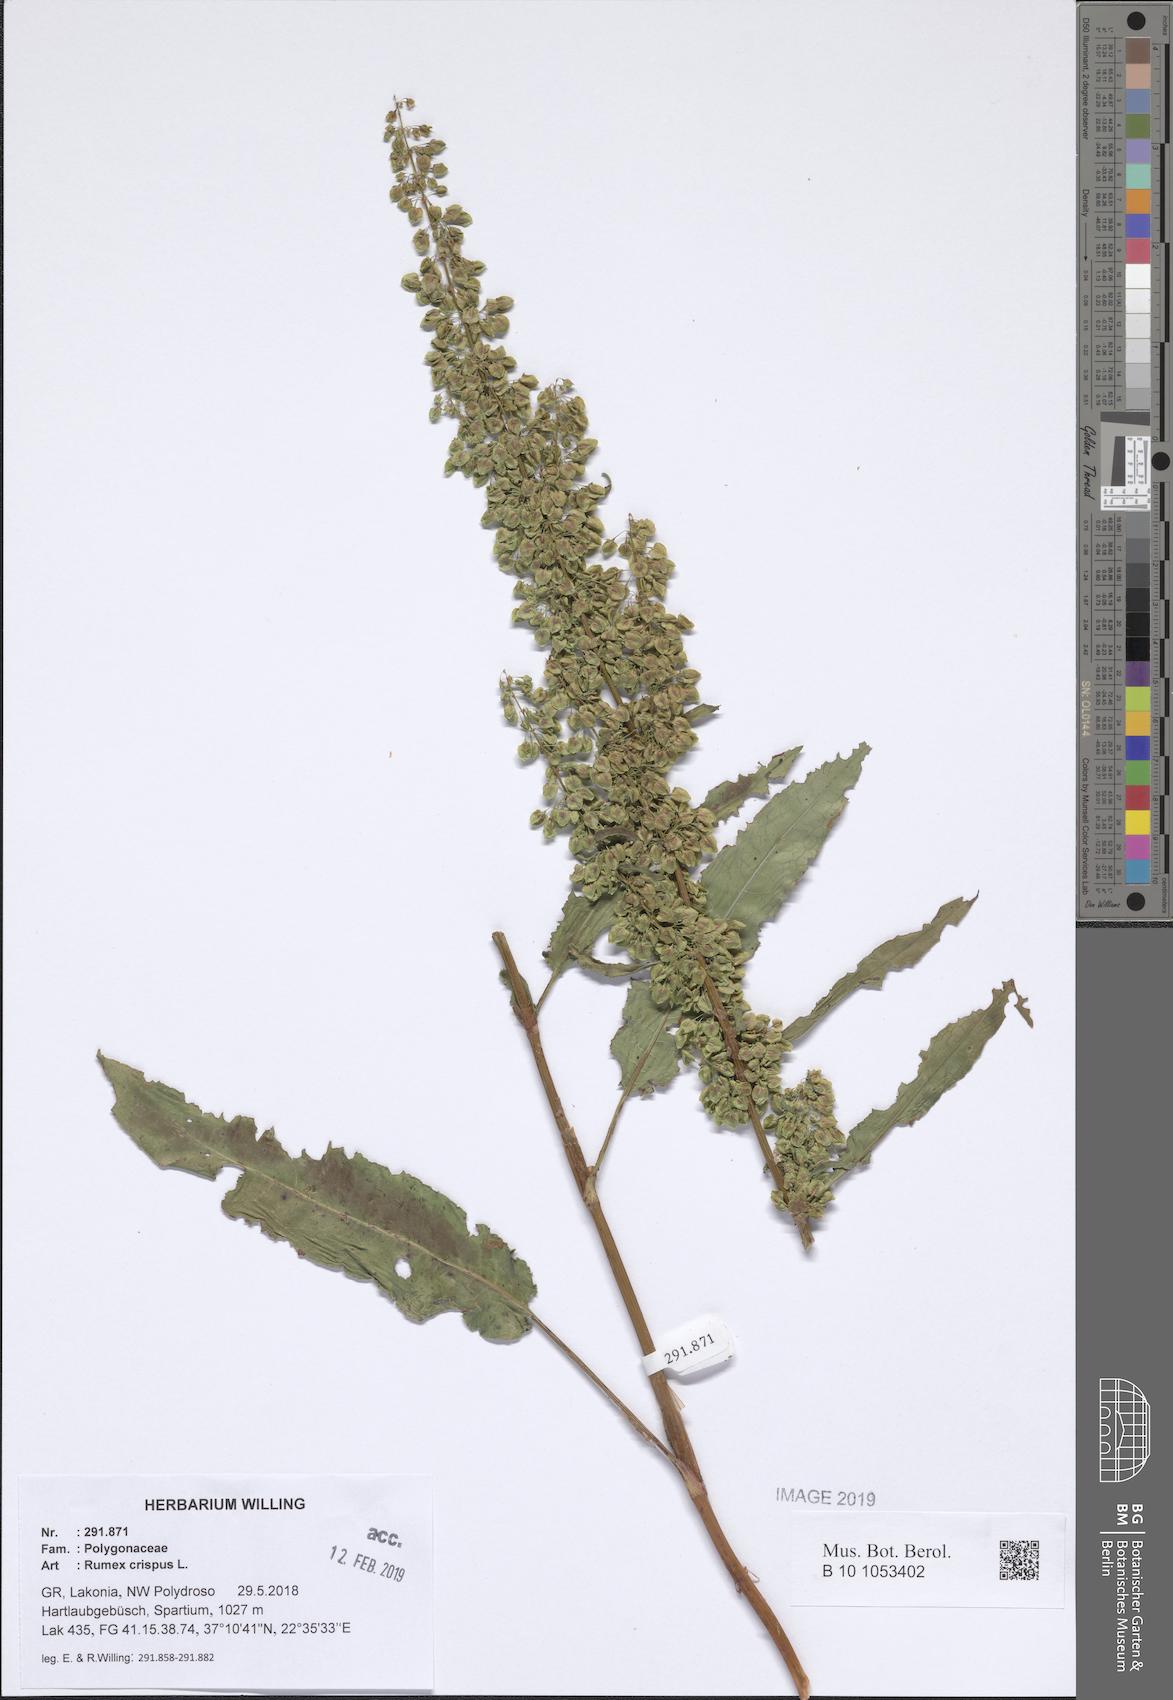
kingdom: Plantae
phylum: Tracheophyta
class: Magnoliopsida
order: Caryophyllales
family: Polygonaceae
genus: Rumex
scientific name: Rumex crispus
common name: Curled dock
